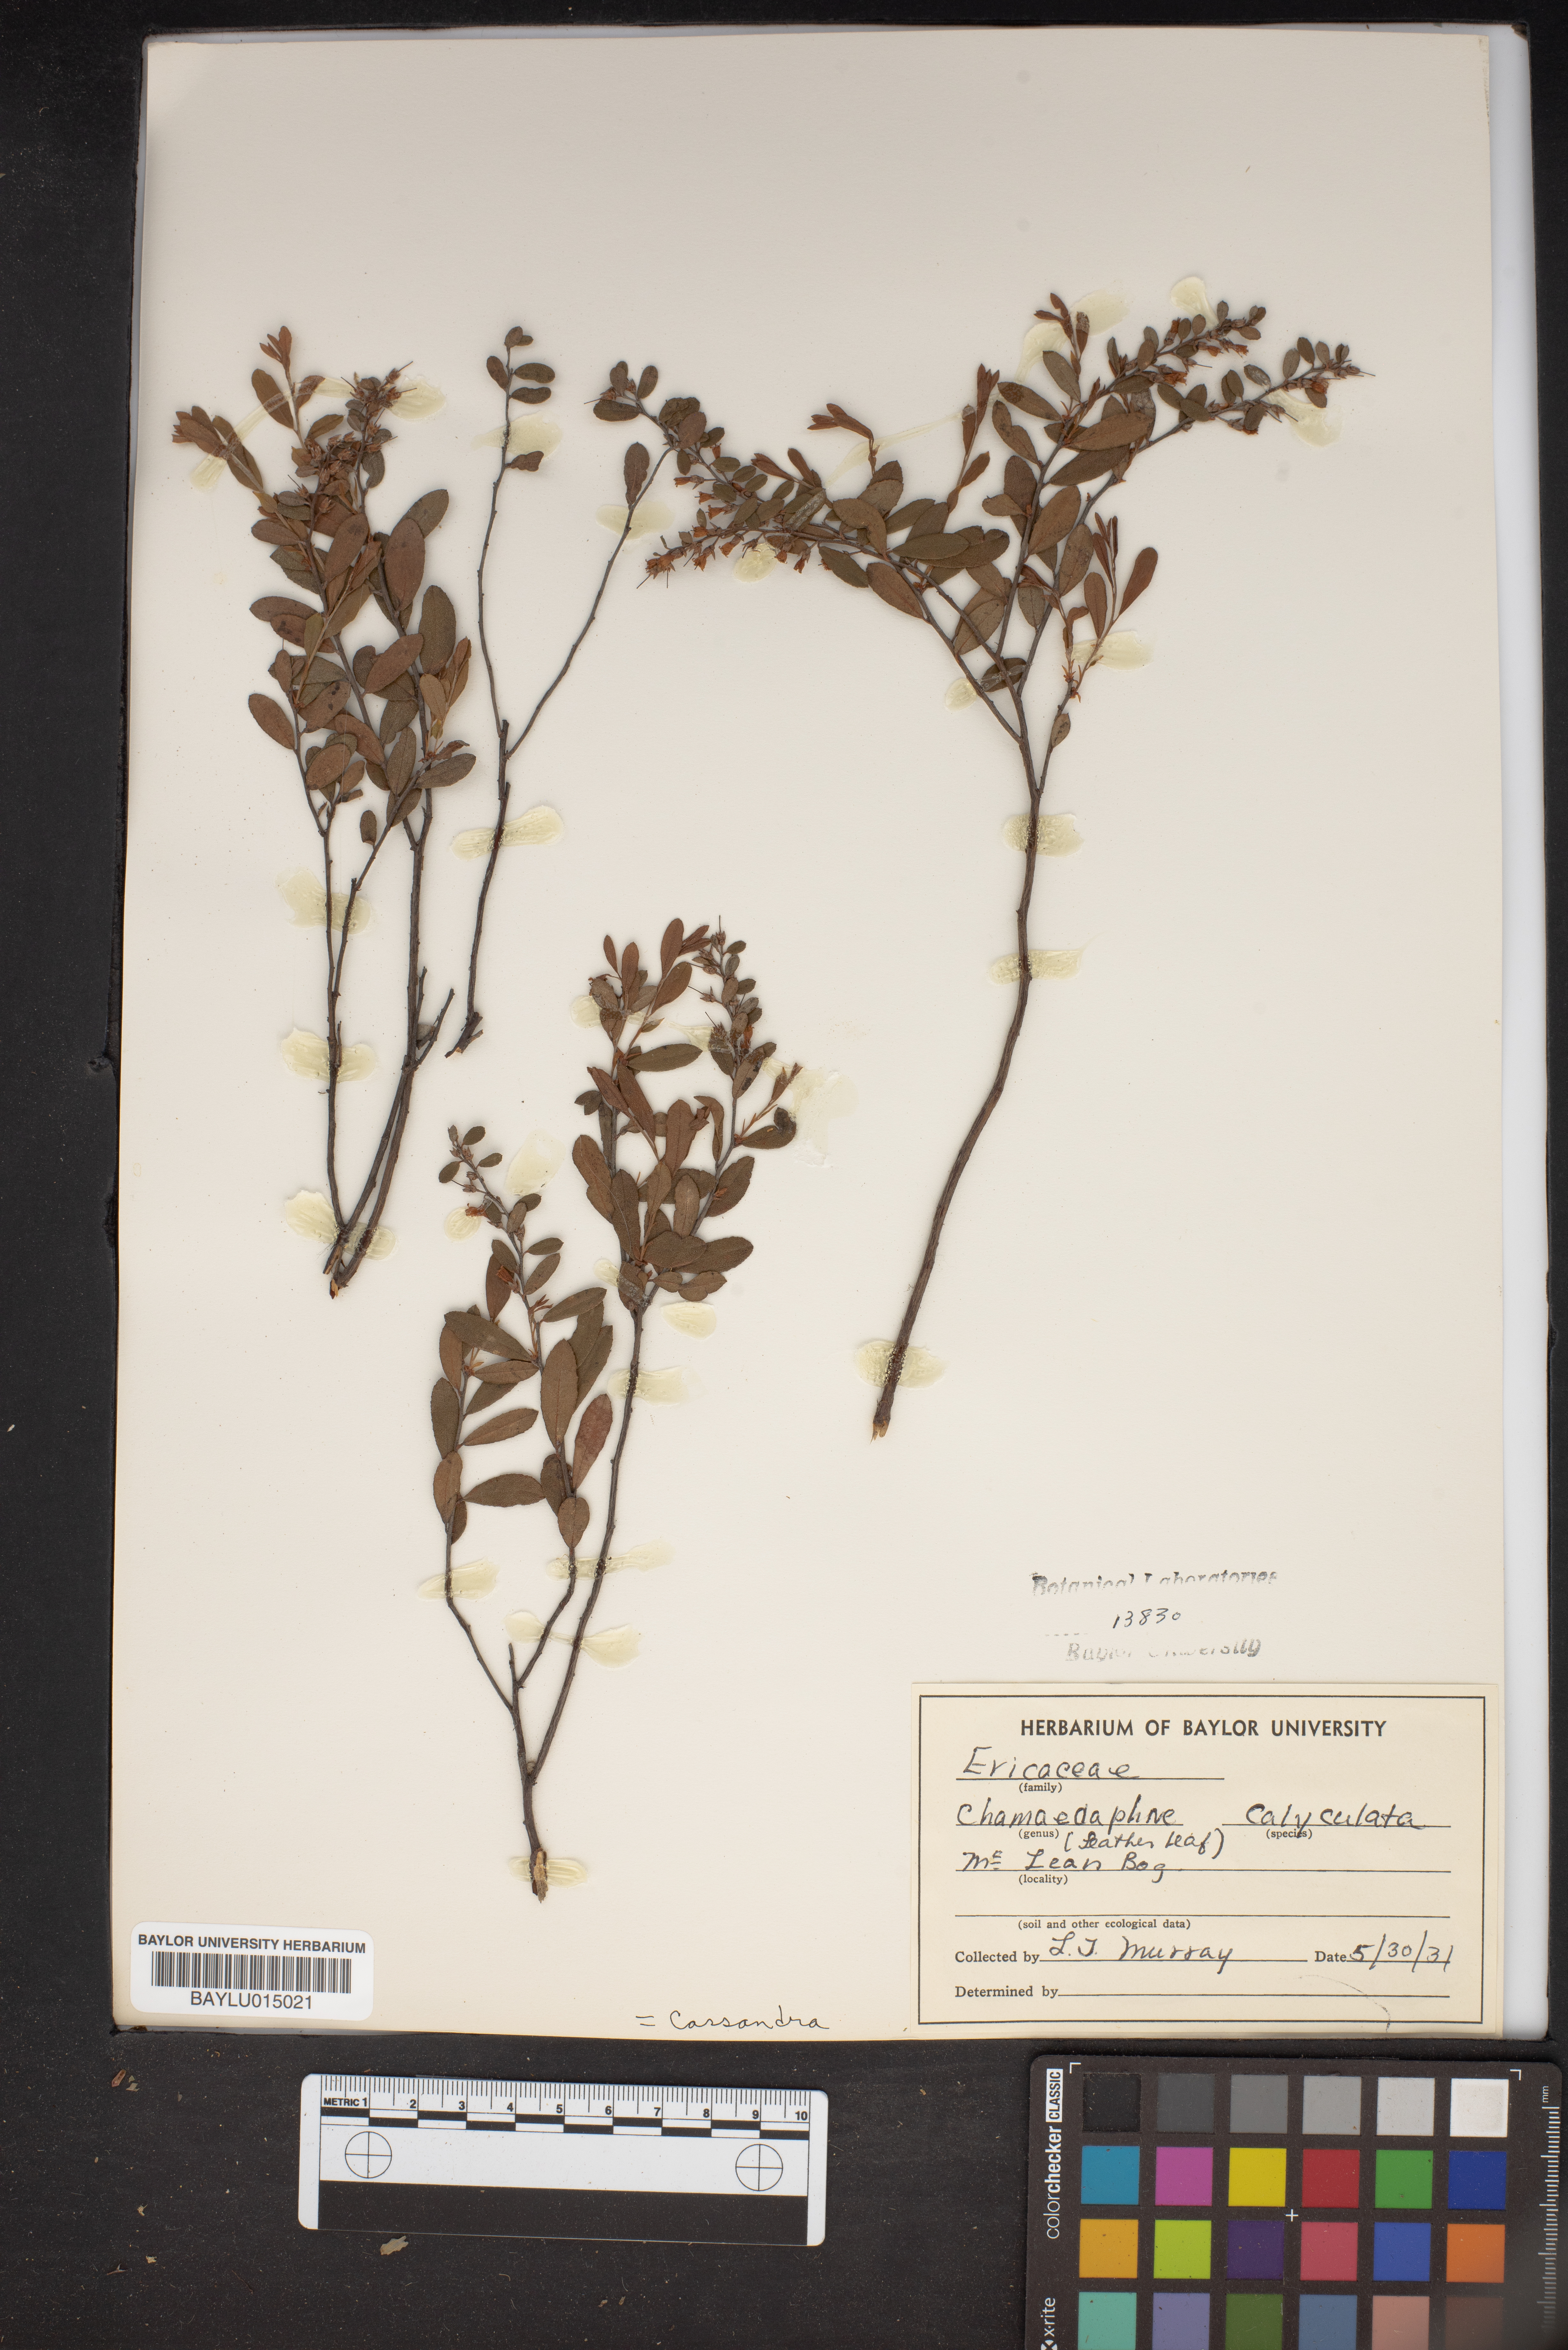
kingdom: Plantae
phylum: Tracheophyta
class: Magnoliopsida
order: Ericales
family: Ericaceae
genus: Chamaedaphne
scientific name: Chamaedaphne calyculata
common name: Leatherleaf
